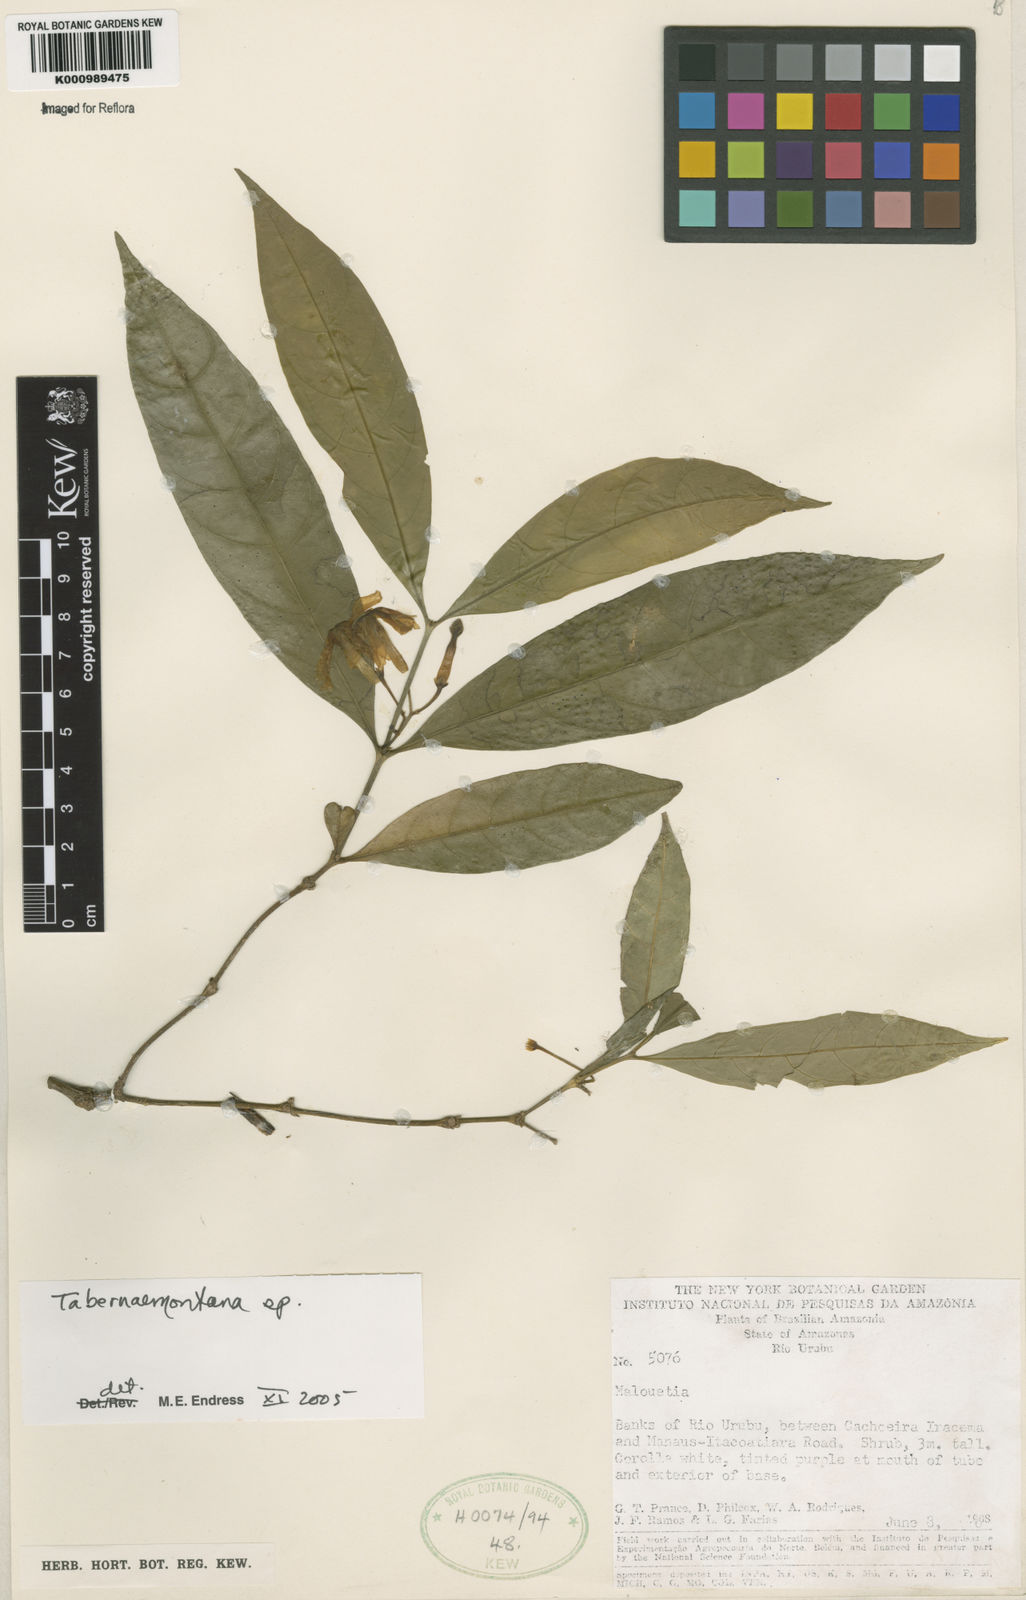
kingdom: Plantae
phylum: Tracheophyta
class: Magnoliopsida
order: Gentianales
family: Apocynaceae
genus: Tabernaemontana
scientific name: Tabernaemontana
